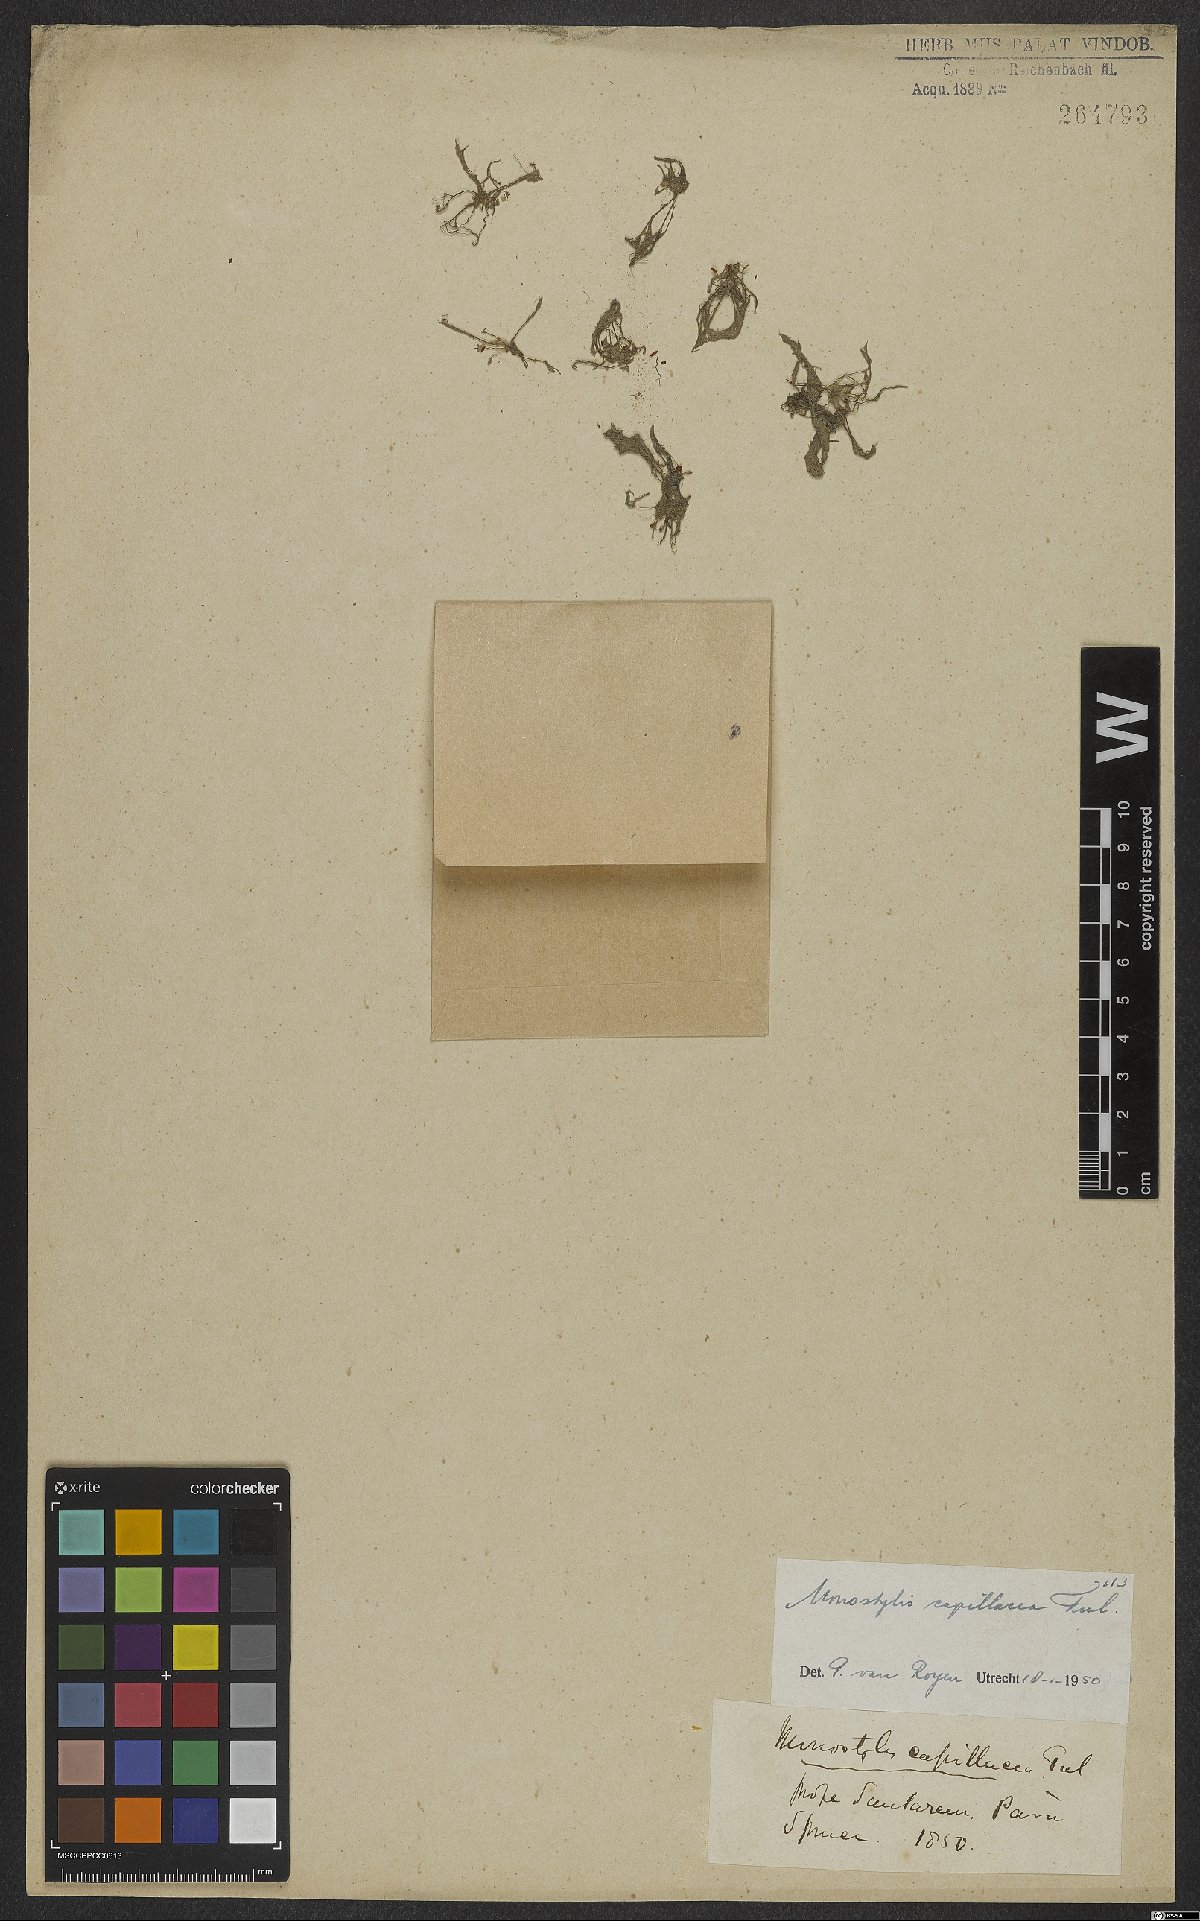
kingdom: Plantae
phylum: Tracheophyta
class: Magnoliopsida
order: Malpighiales
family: Podostemaceae
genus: Lophogyne
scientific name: Lophogyne royenella
